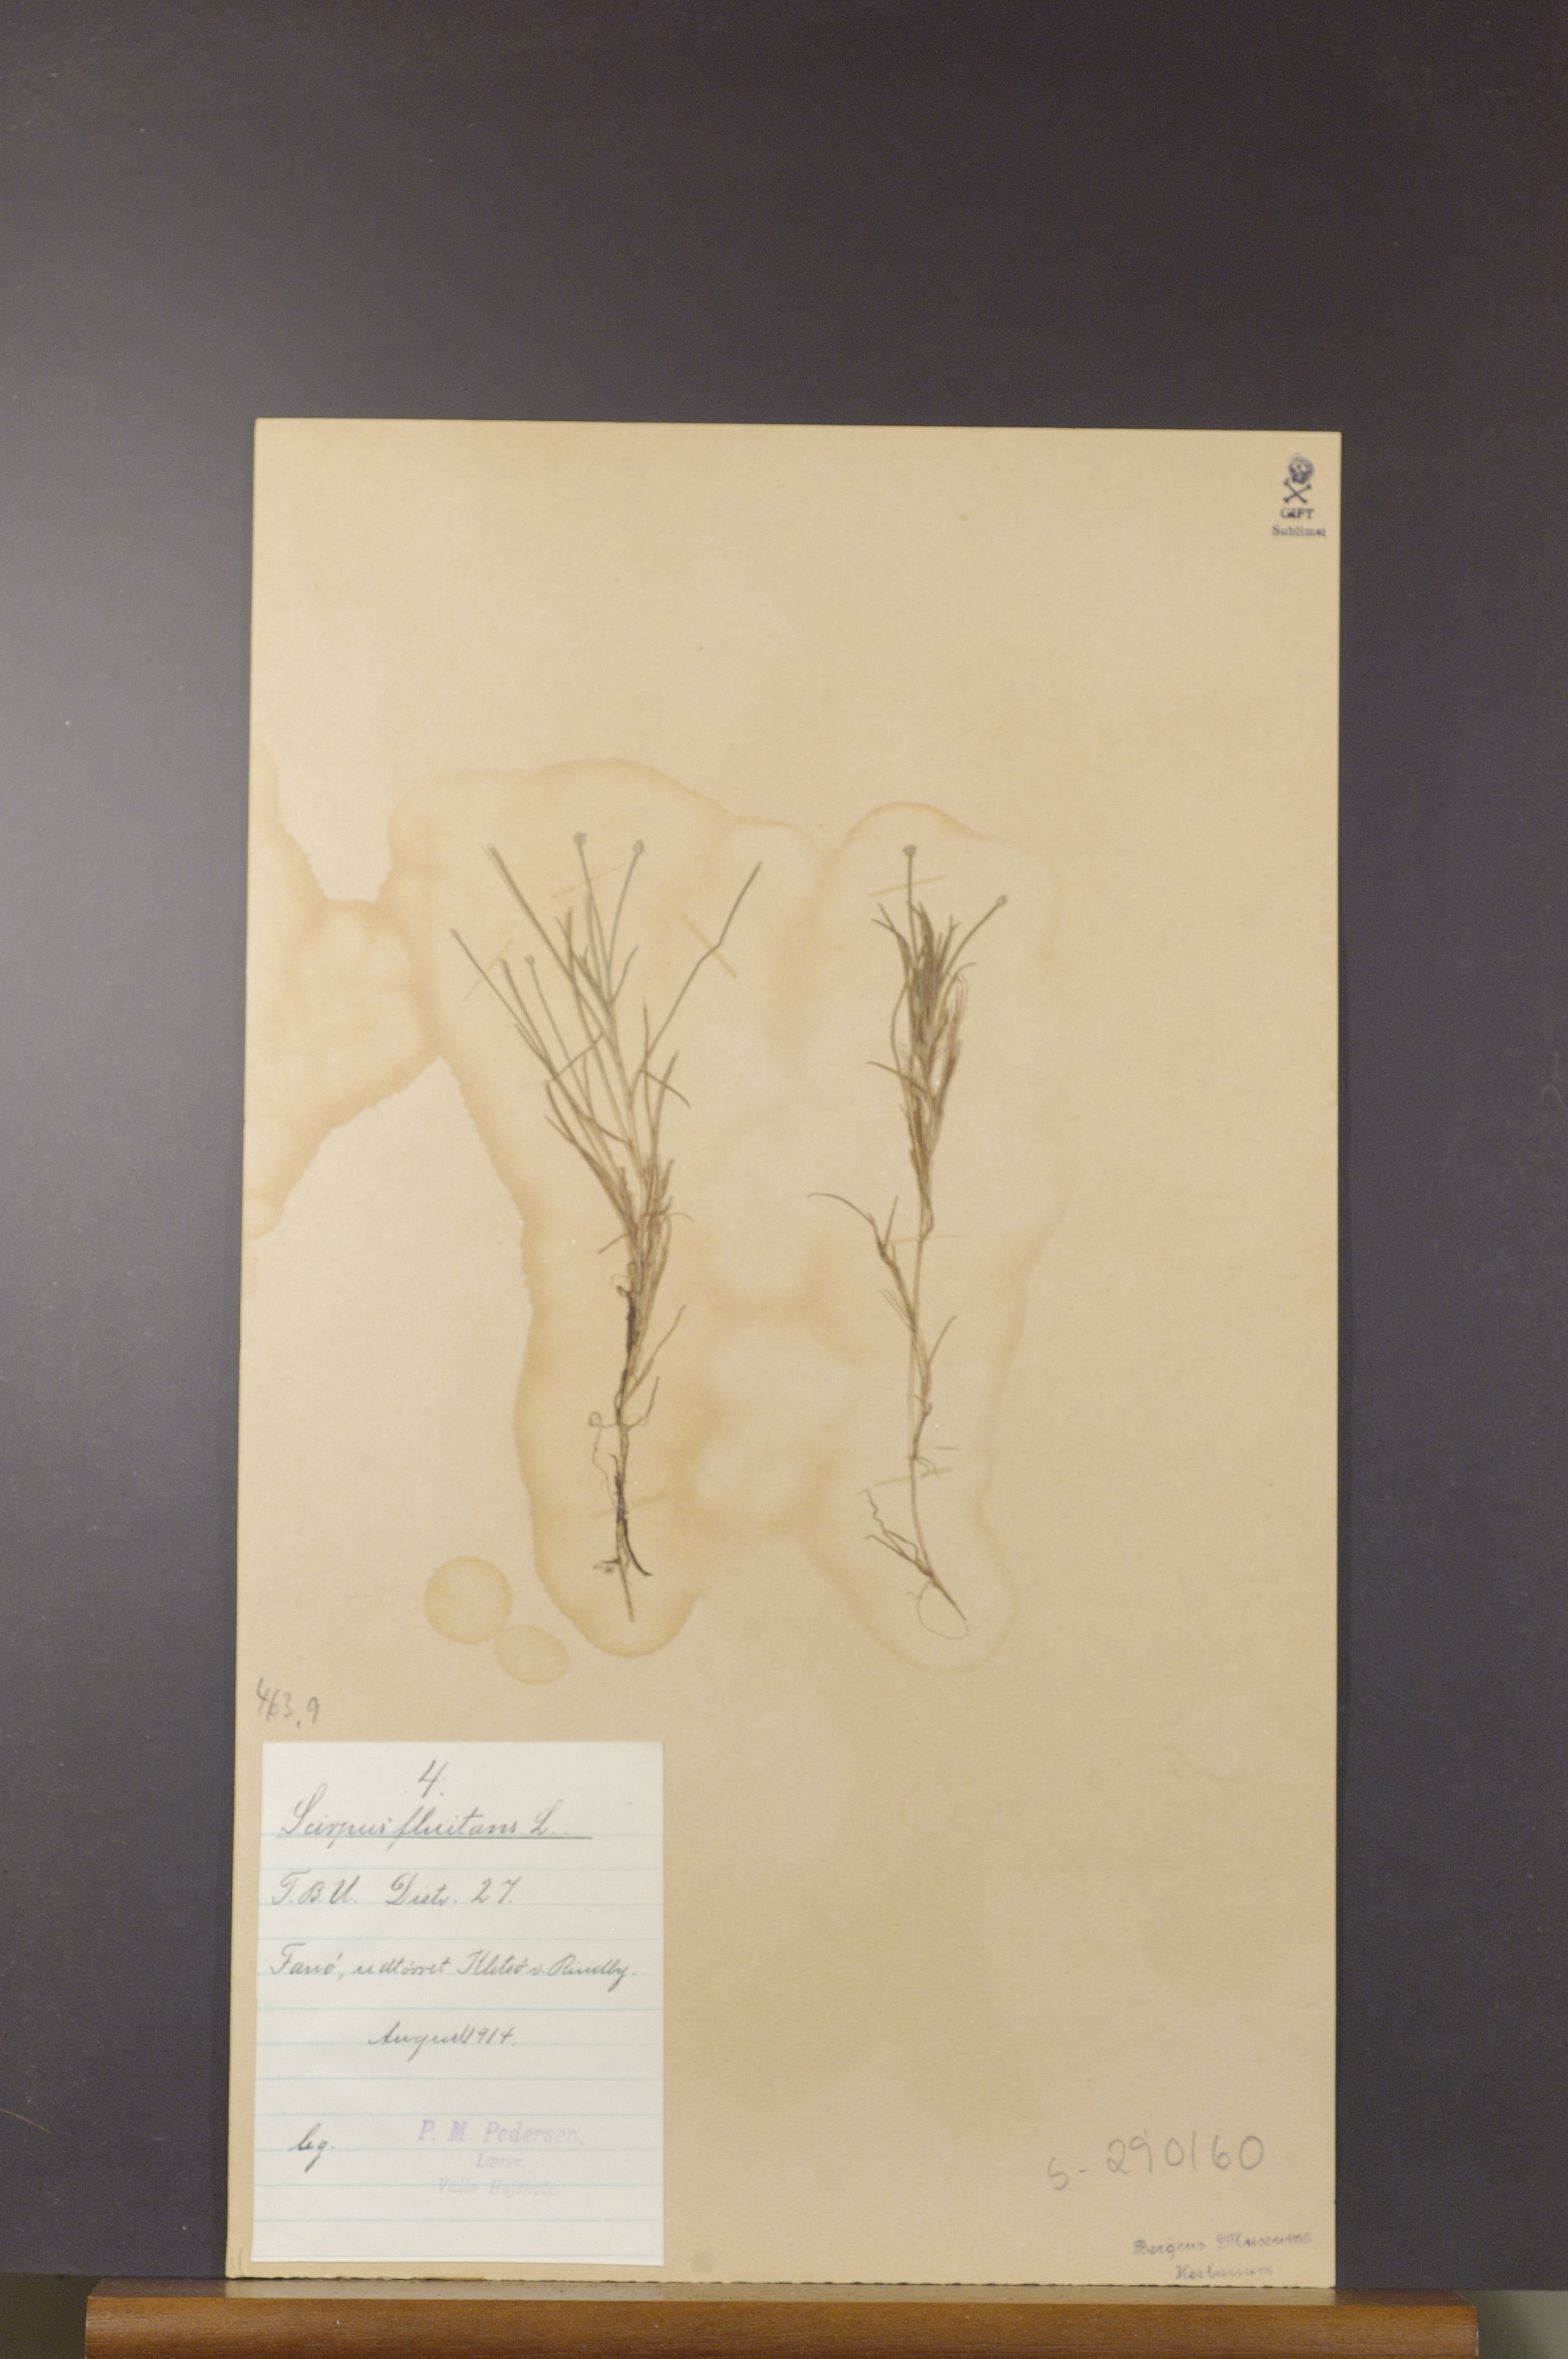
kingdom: Plantae
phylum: Tracheophyta
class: Liliopsida
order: Poales
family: Cyperaceae
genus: Isolepis
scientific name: Isolepis fluitans
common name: Floating club-rush
